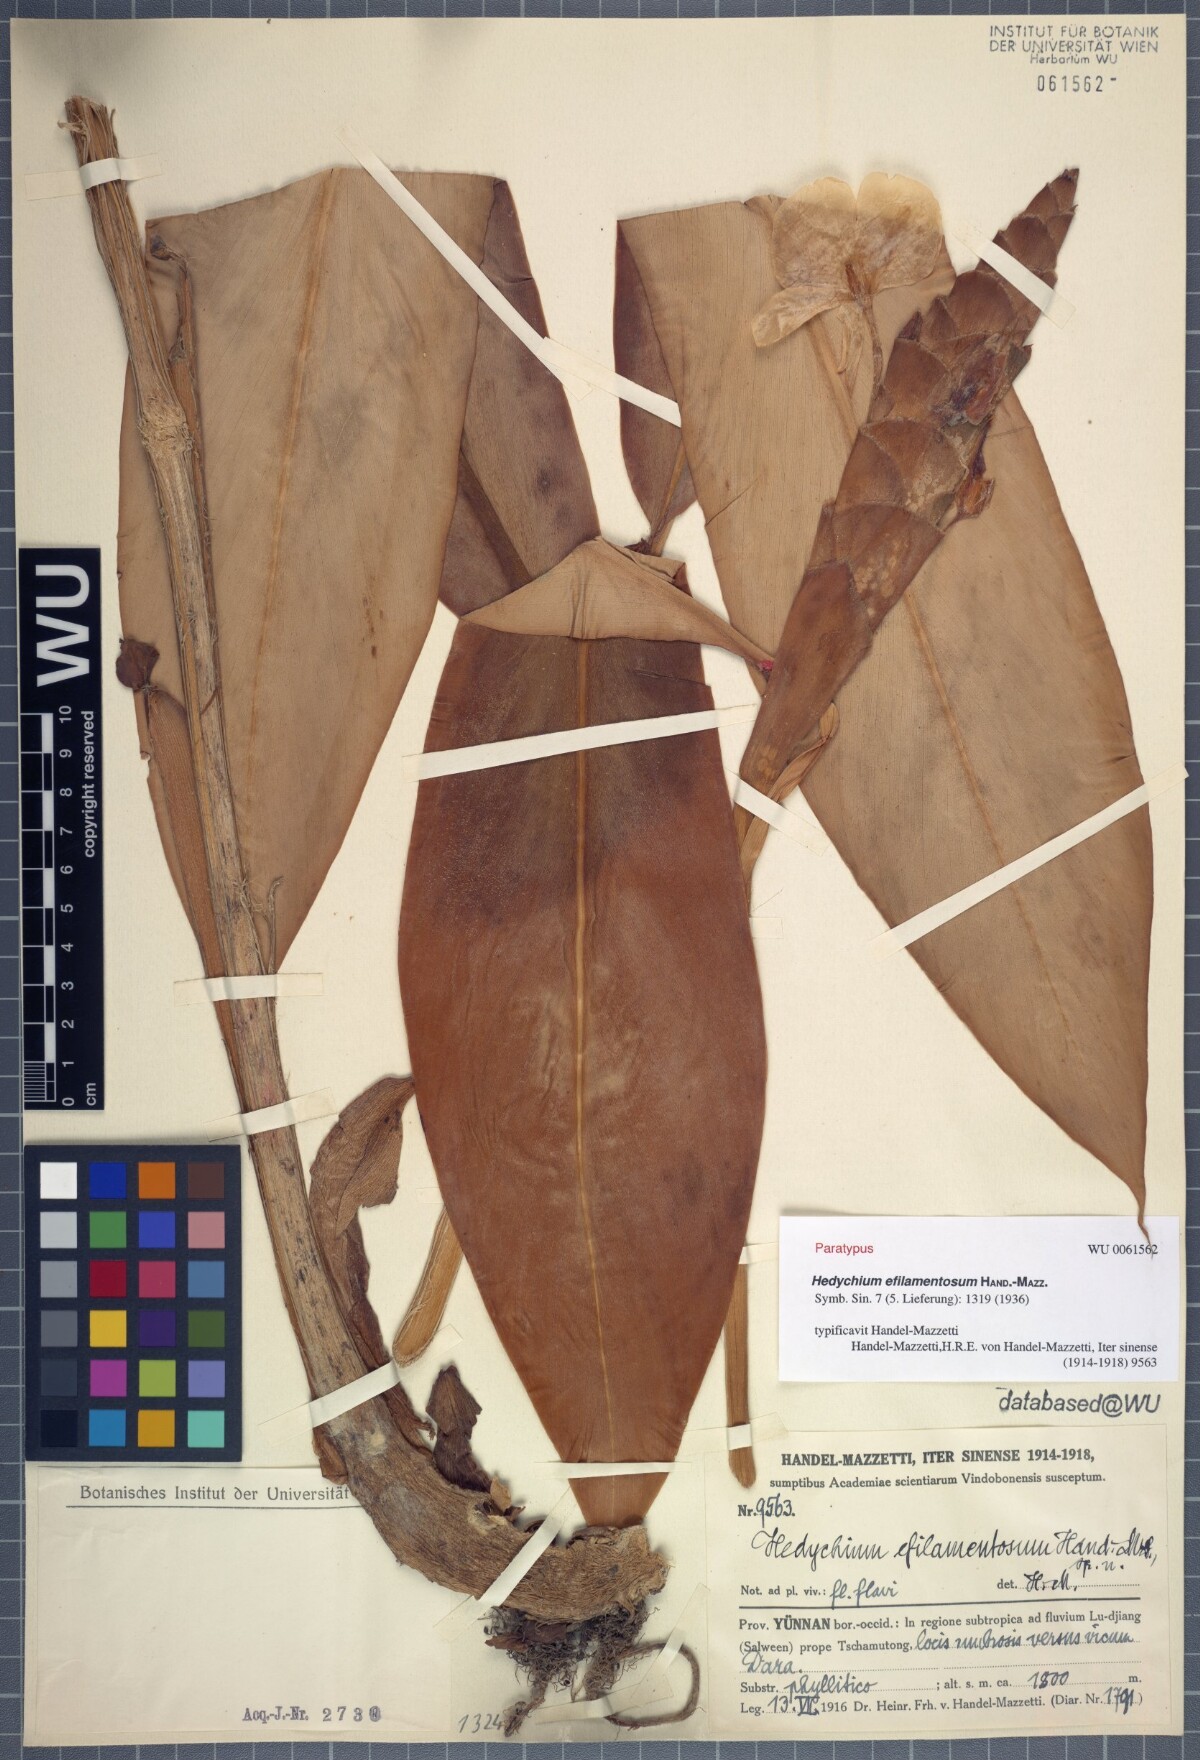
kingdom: Plantae
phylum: Tracheophyta
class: Liliopsida
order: Zingiberales
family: Zingiberaceae
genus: Hedychium
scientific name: Hedychium efilamentosum
